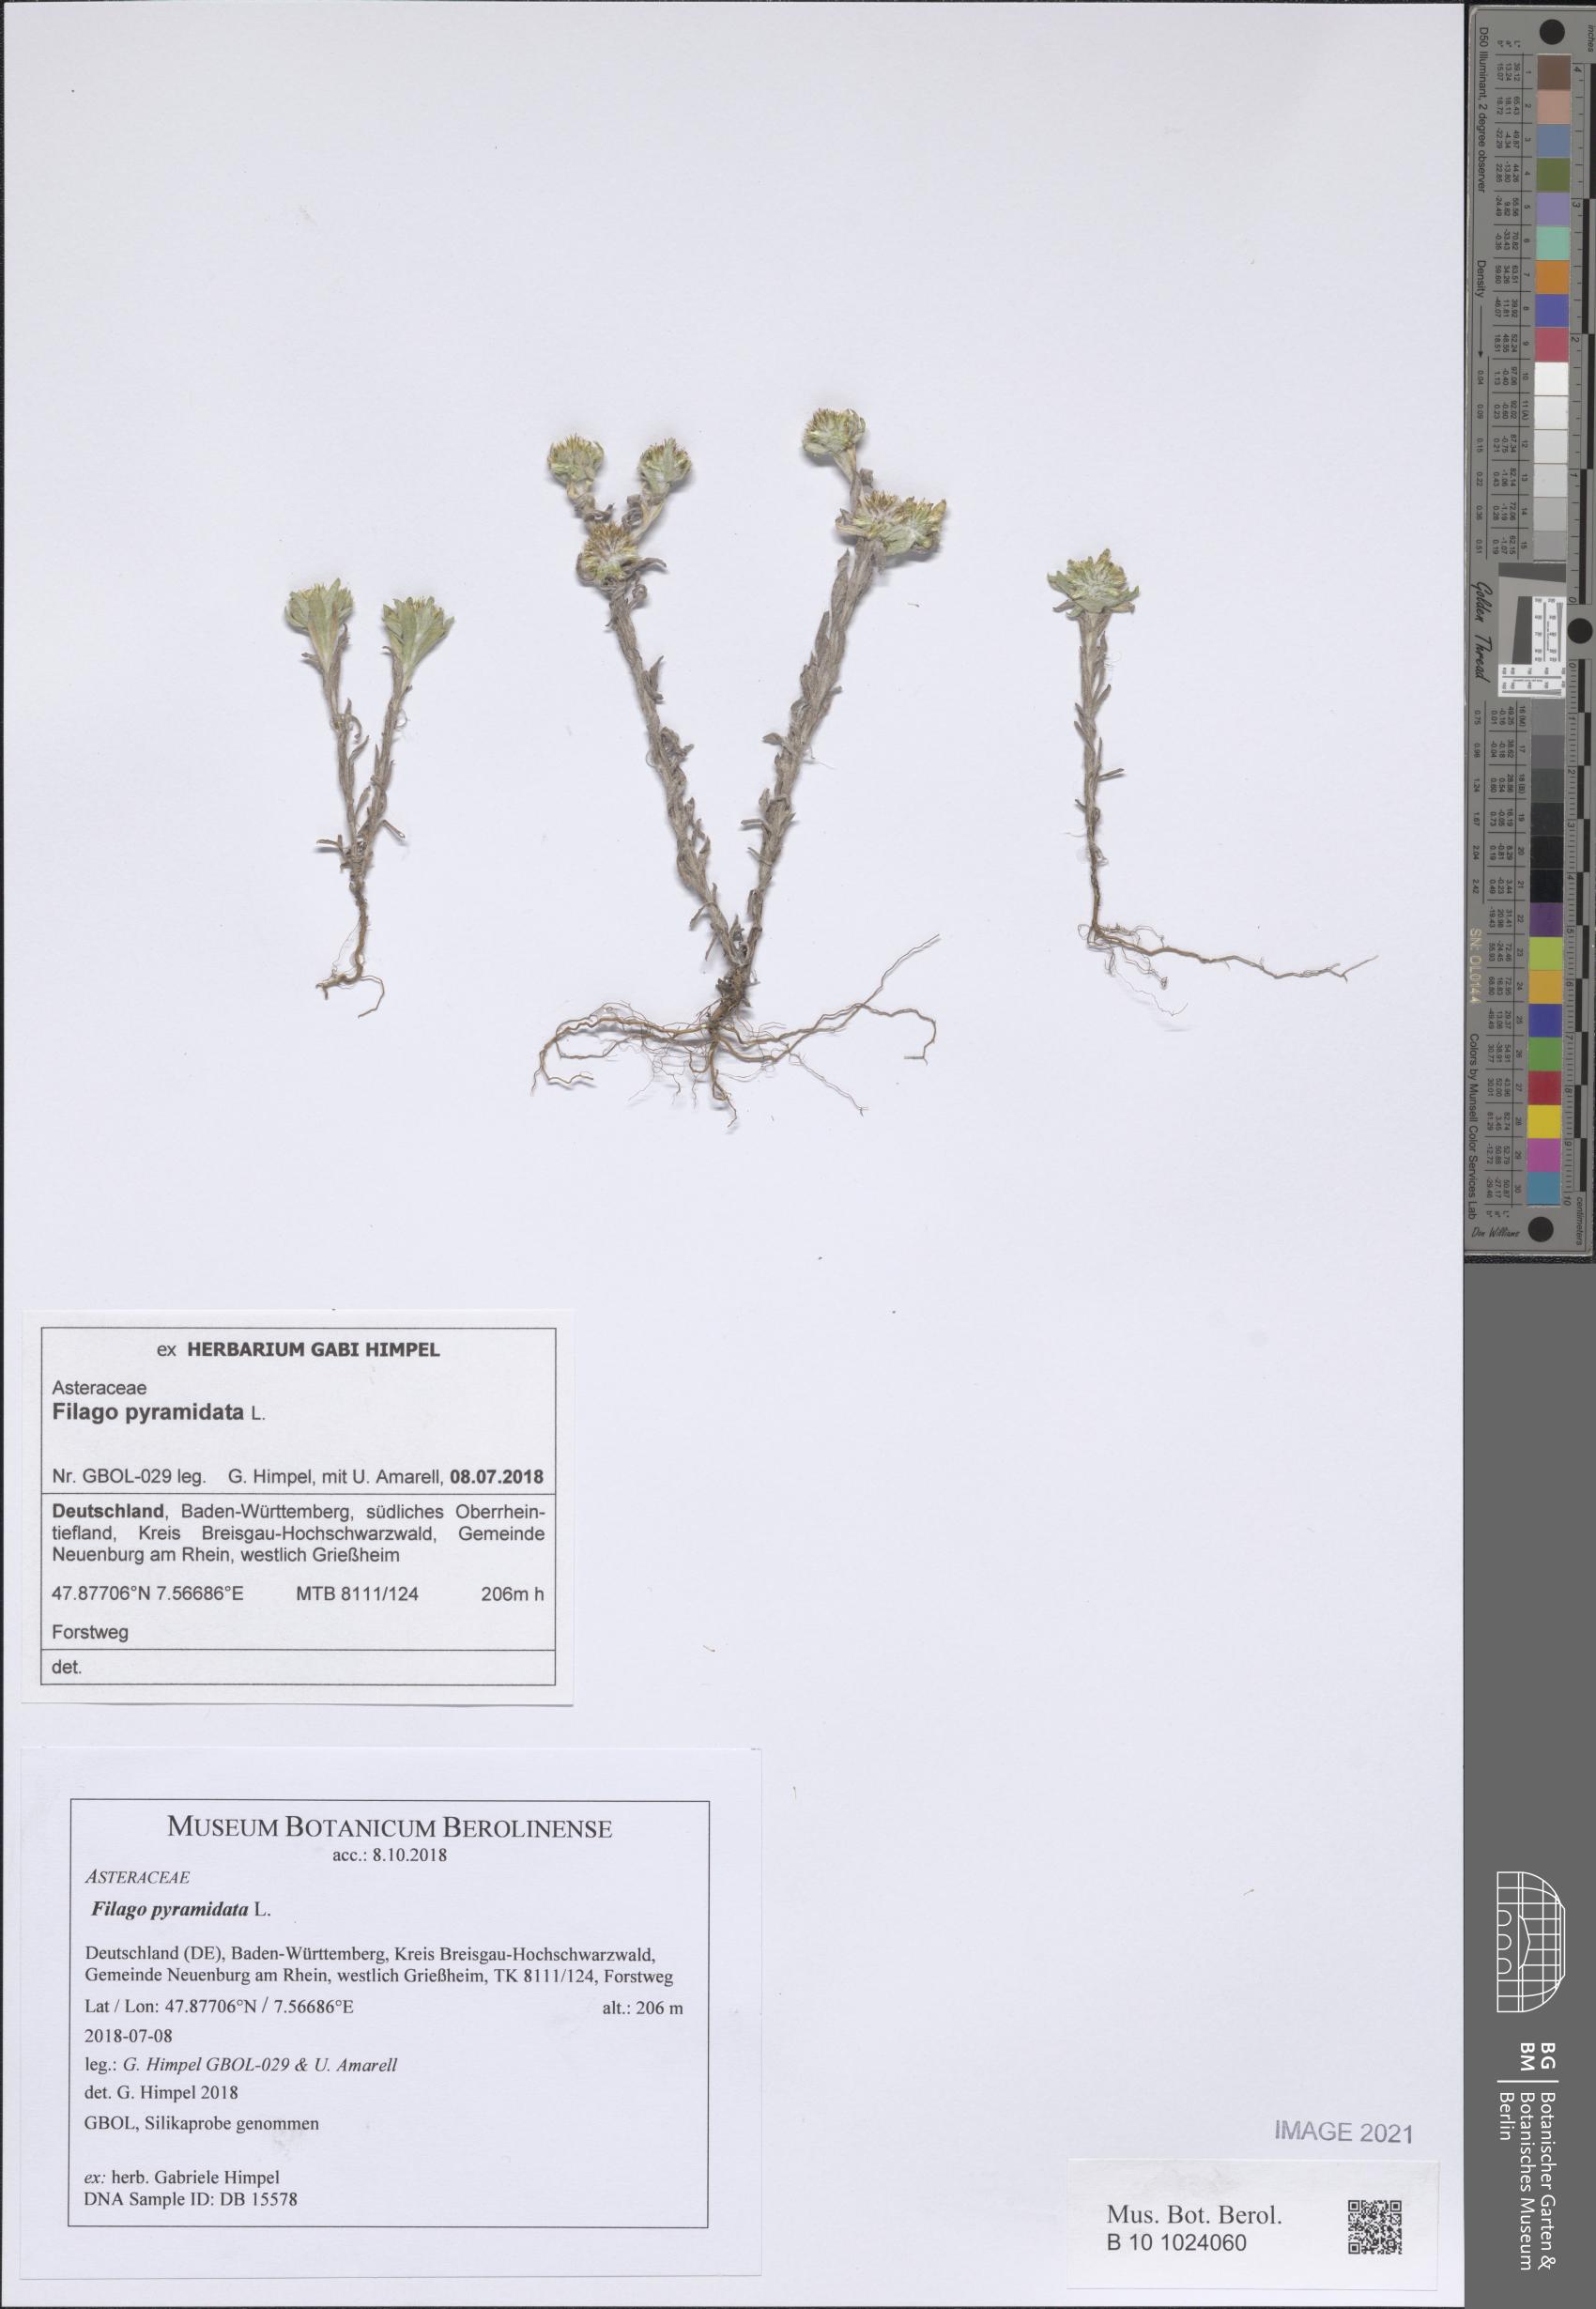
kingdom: Plantae
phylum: Tracheophyta
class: Magnoliopsida
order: Asterales
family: Asteraceae
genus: Filago
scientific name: Filago pyramidata
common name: Broad-leaved cudweed
